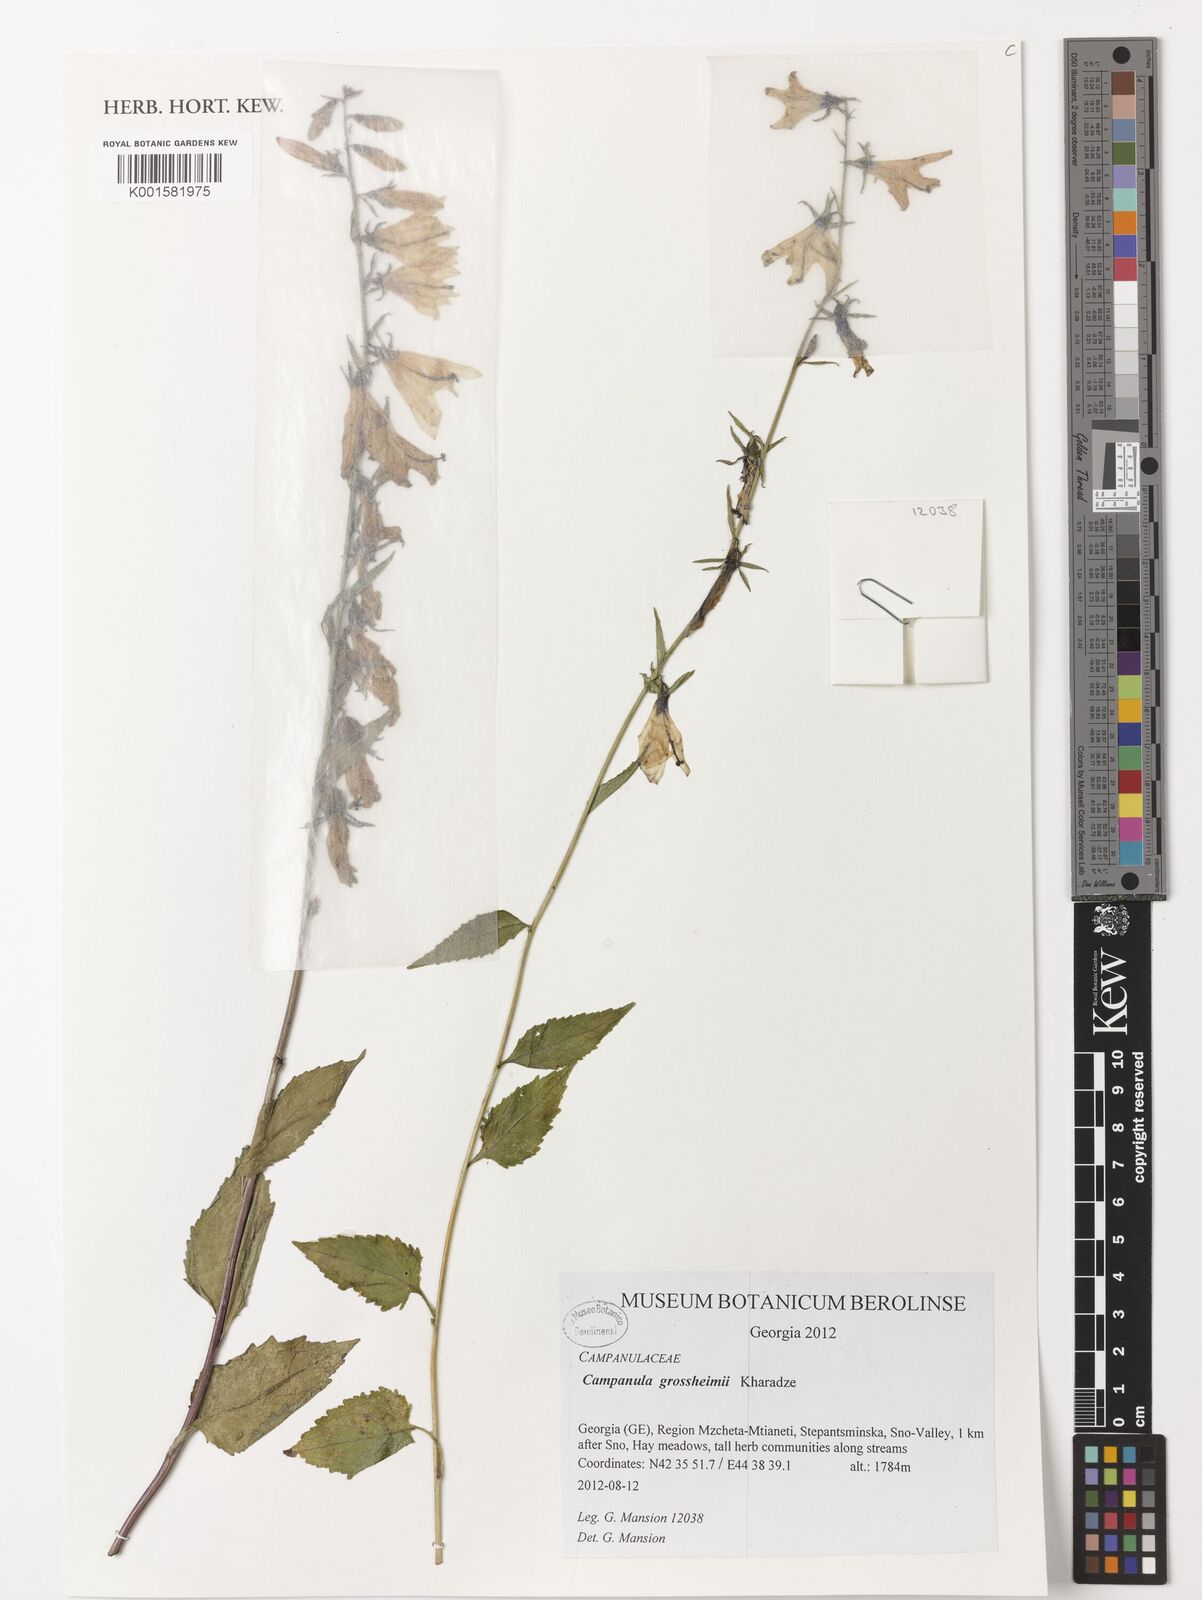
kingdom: Plantae
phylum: Tracheophyta
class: Magnoliopsida
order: Asterales
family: Campanulaceae
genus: Campanula
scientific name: Campanula rapunculoides
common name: Creeping bellflower
